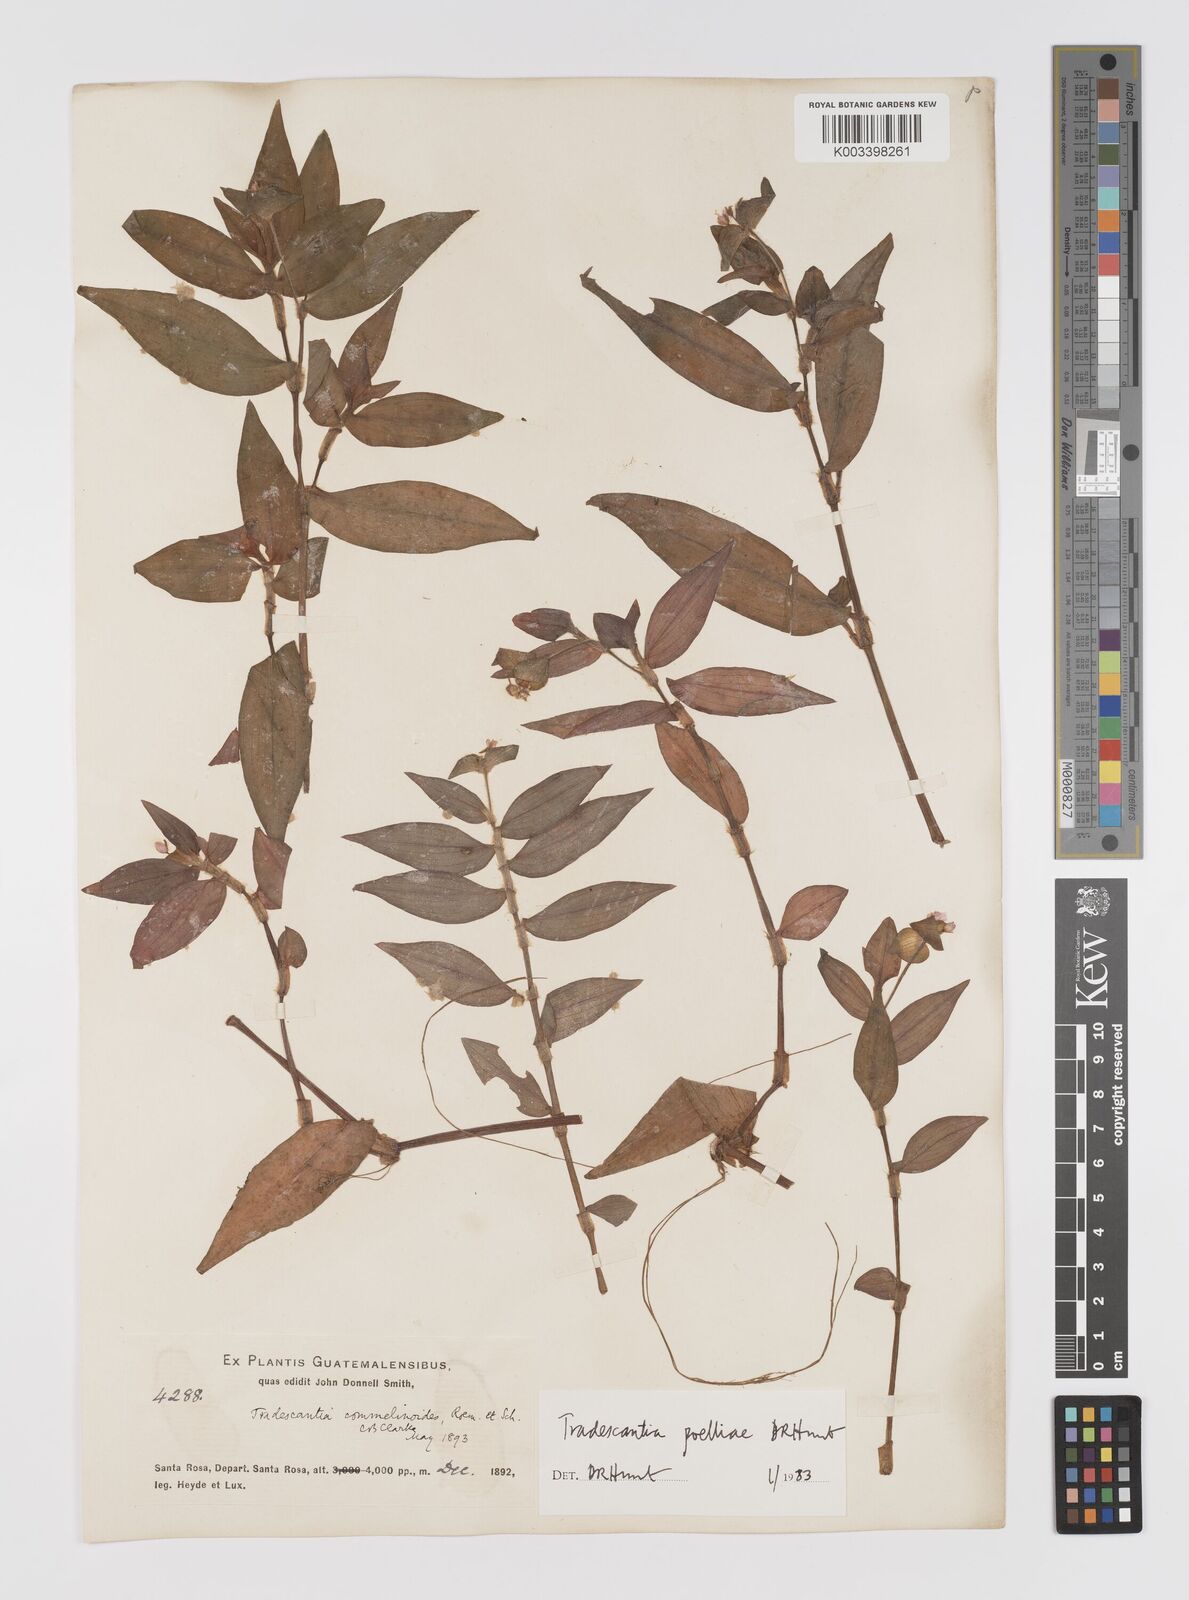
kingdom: Plantae
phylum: Tracheophyta
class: Liliopsida
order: Commelinales
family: Commelinaceae
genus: Tradescantia
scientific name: Tradescantia poelliae
